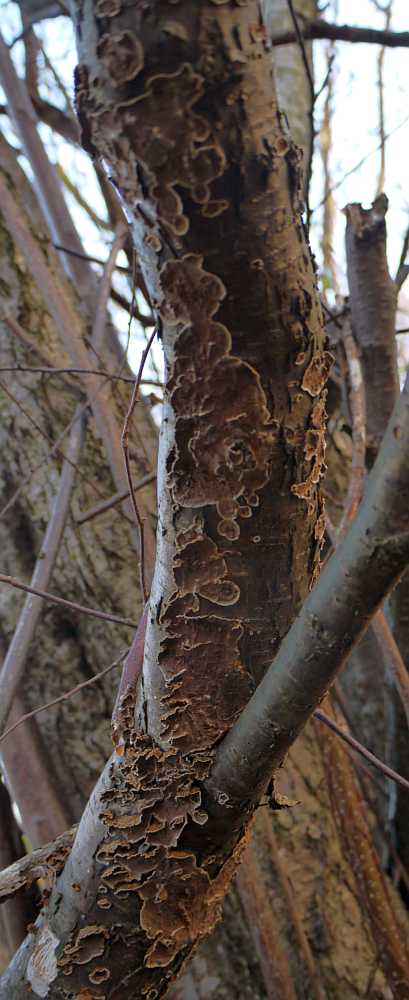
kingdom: Fungi
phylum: Basidiomycota
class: Agaricomycetes
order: Hymenochaetales
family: Hymenochaetaceae
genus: Hydnoporia
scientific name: Hydnoporia tabacina
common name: tobaksbrun ruslædersvamp
